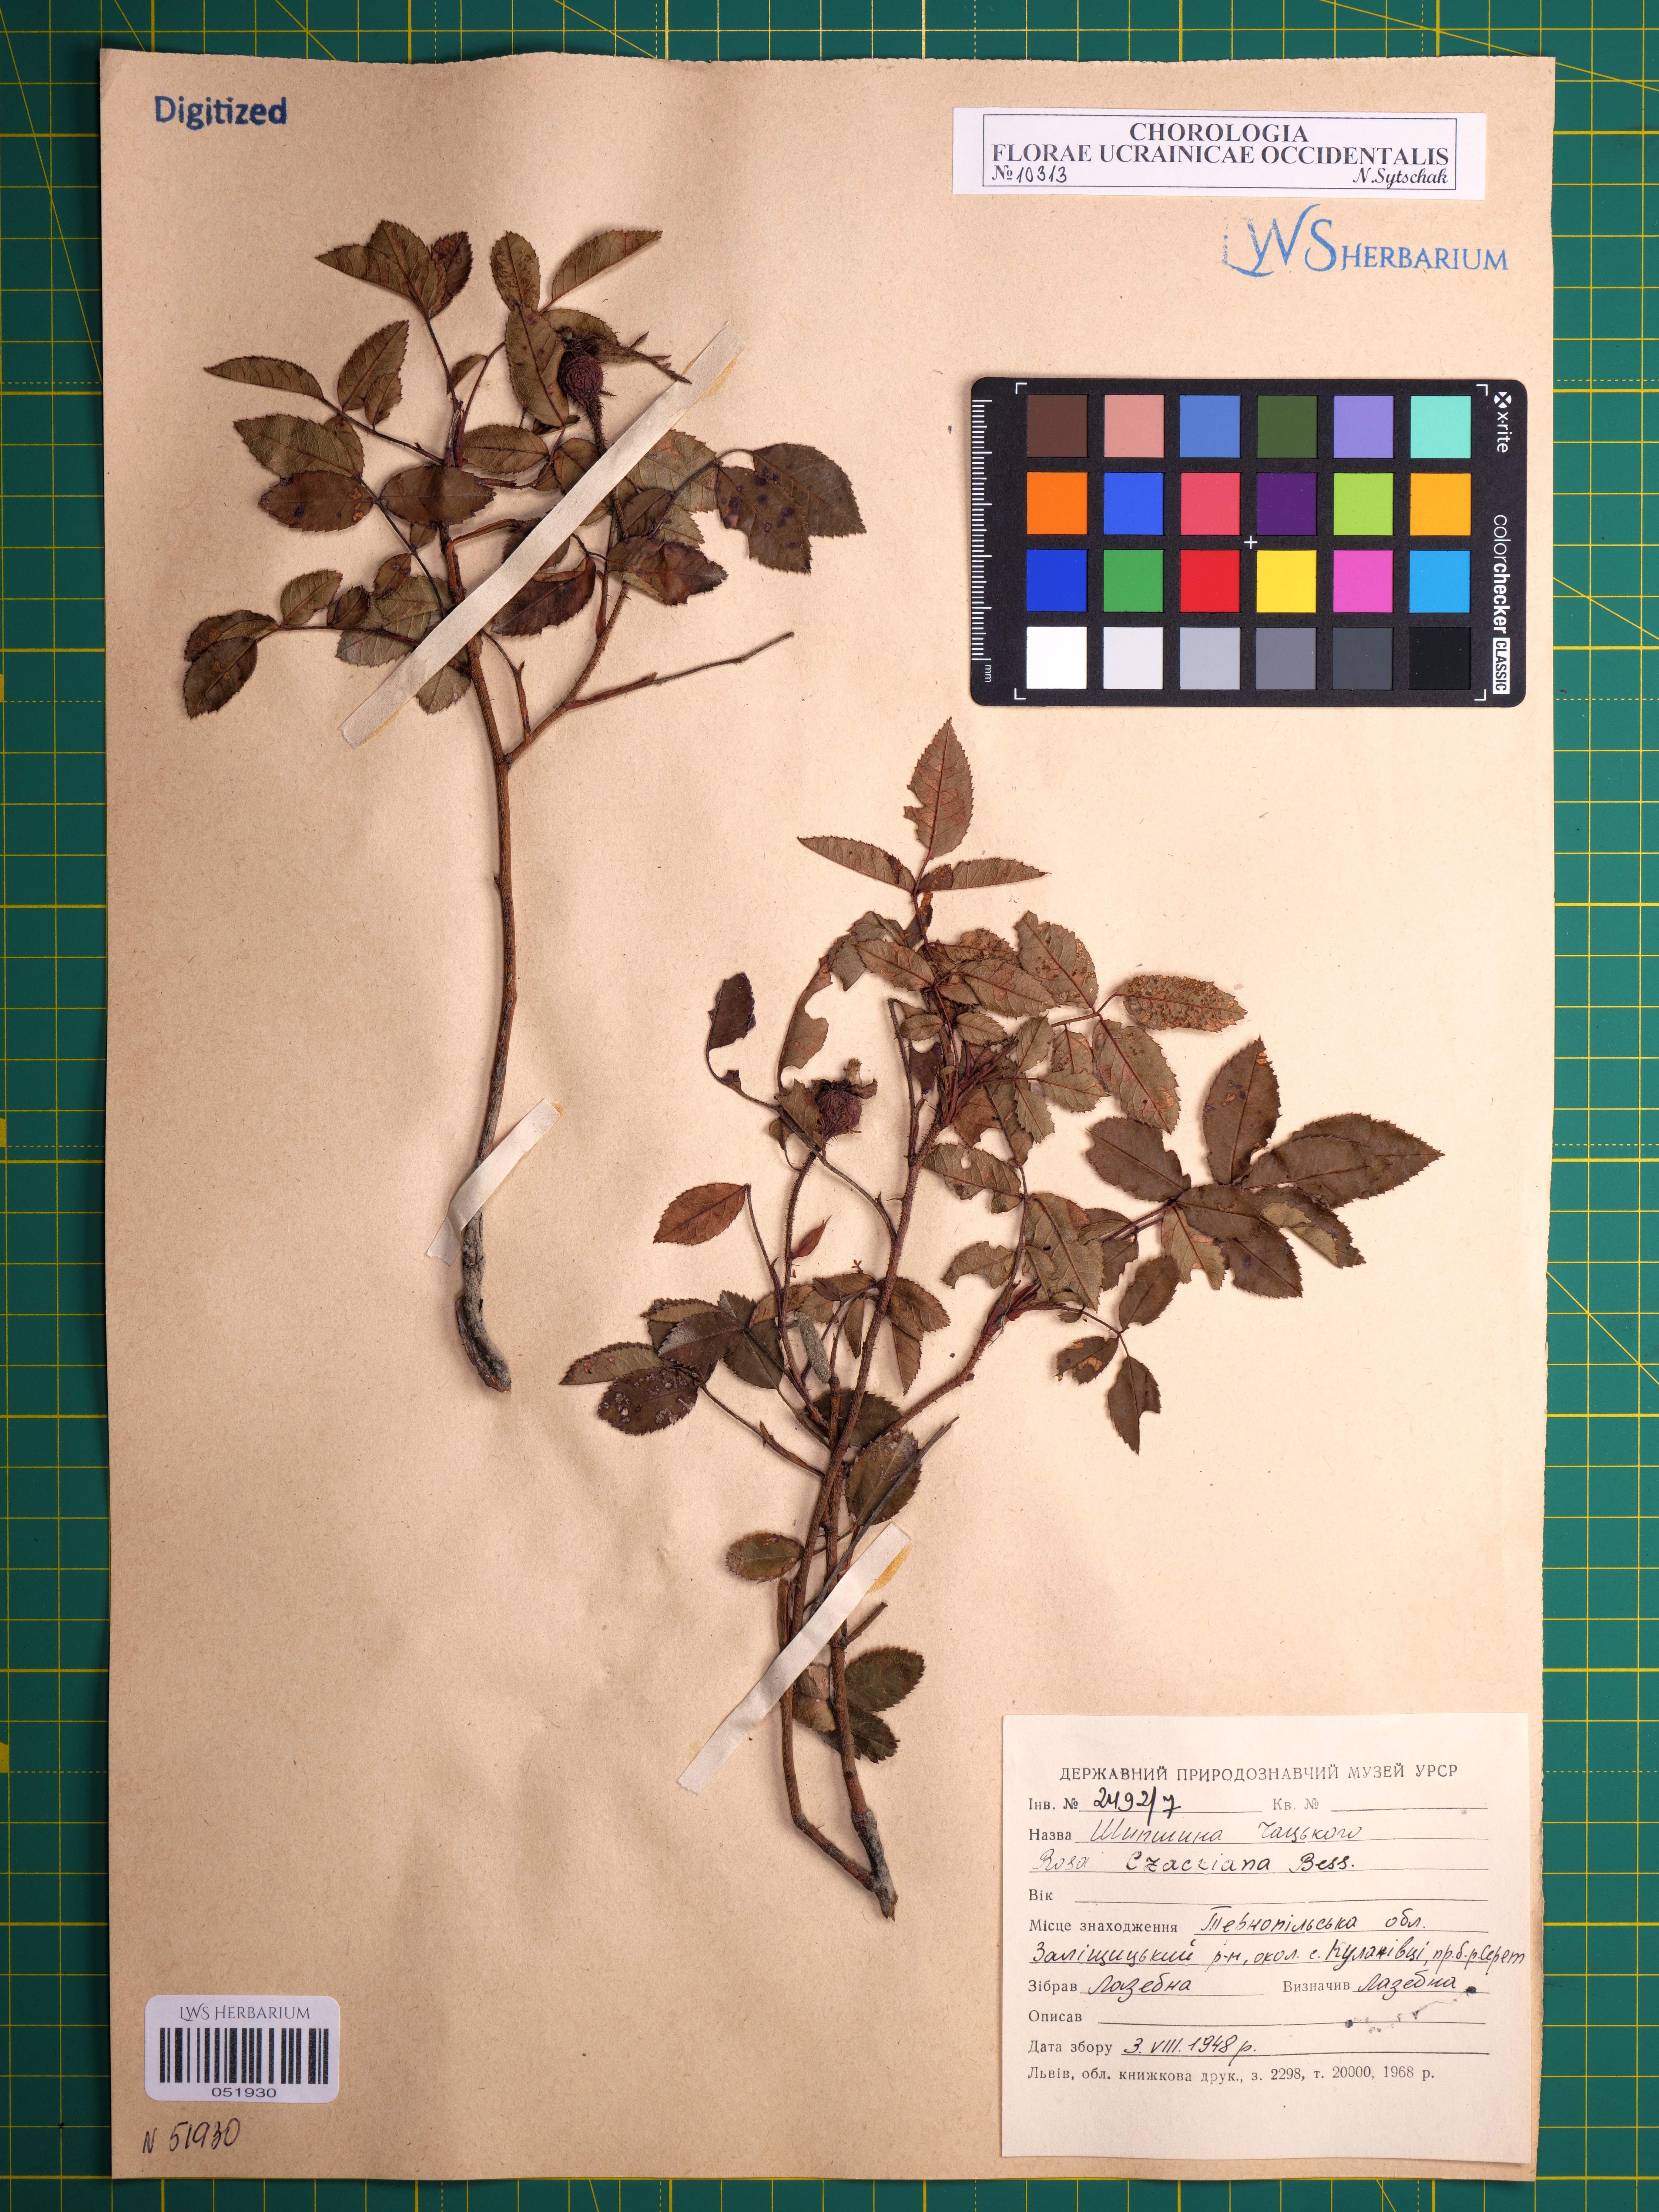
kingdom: Plantae
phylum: Tracheophyta
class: Magnoliopsida
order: Rosales
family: Rosaceae
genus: Rosa
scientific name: Rosa gallica
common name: French rose
